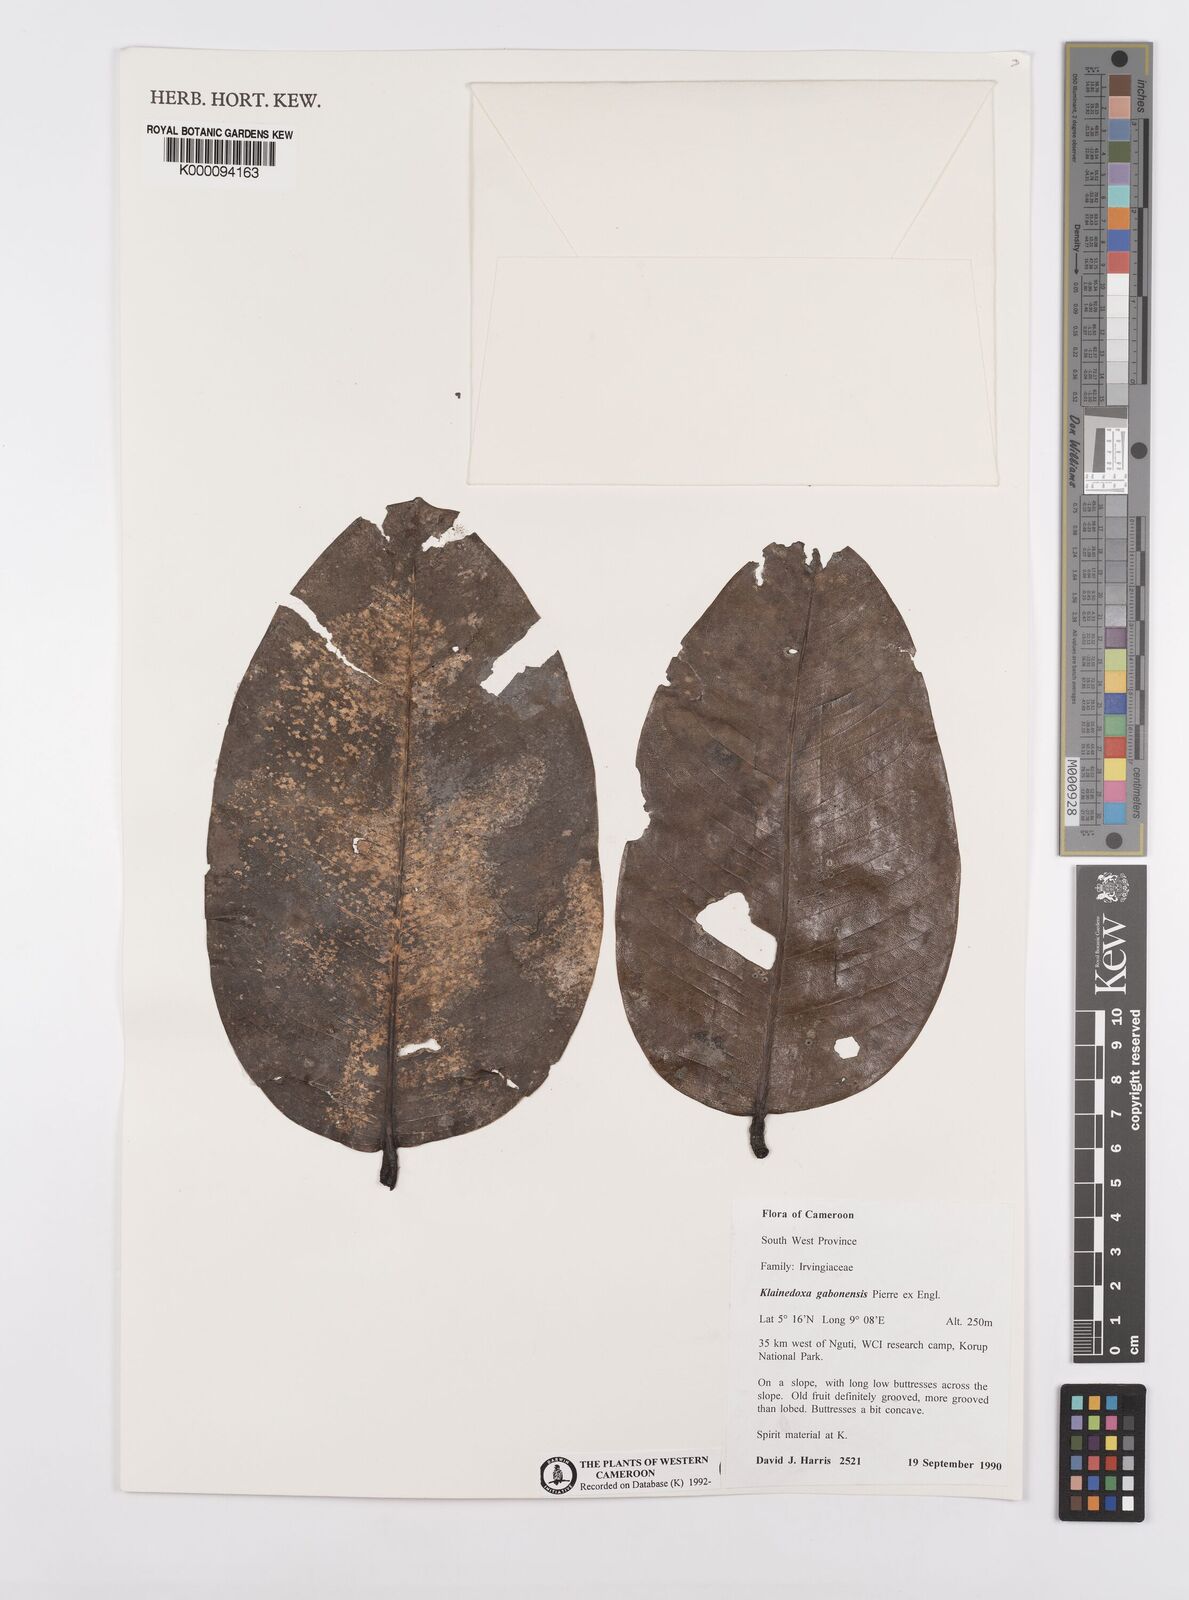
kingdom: Plantae
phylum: Tracheophyta
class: Magnoliopsida
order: Malpighiales
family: Irvingiaceae
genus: Klainedoxa
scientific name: Klainedoxa gabonensis
